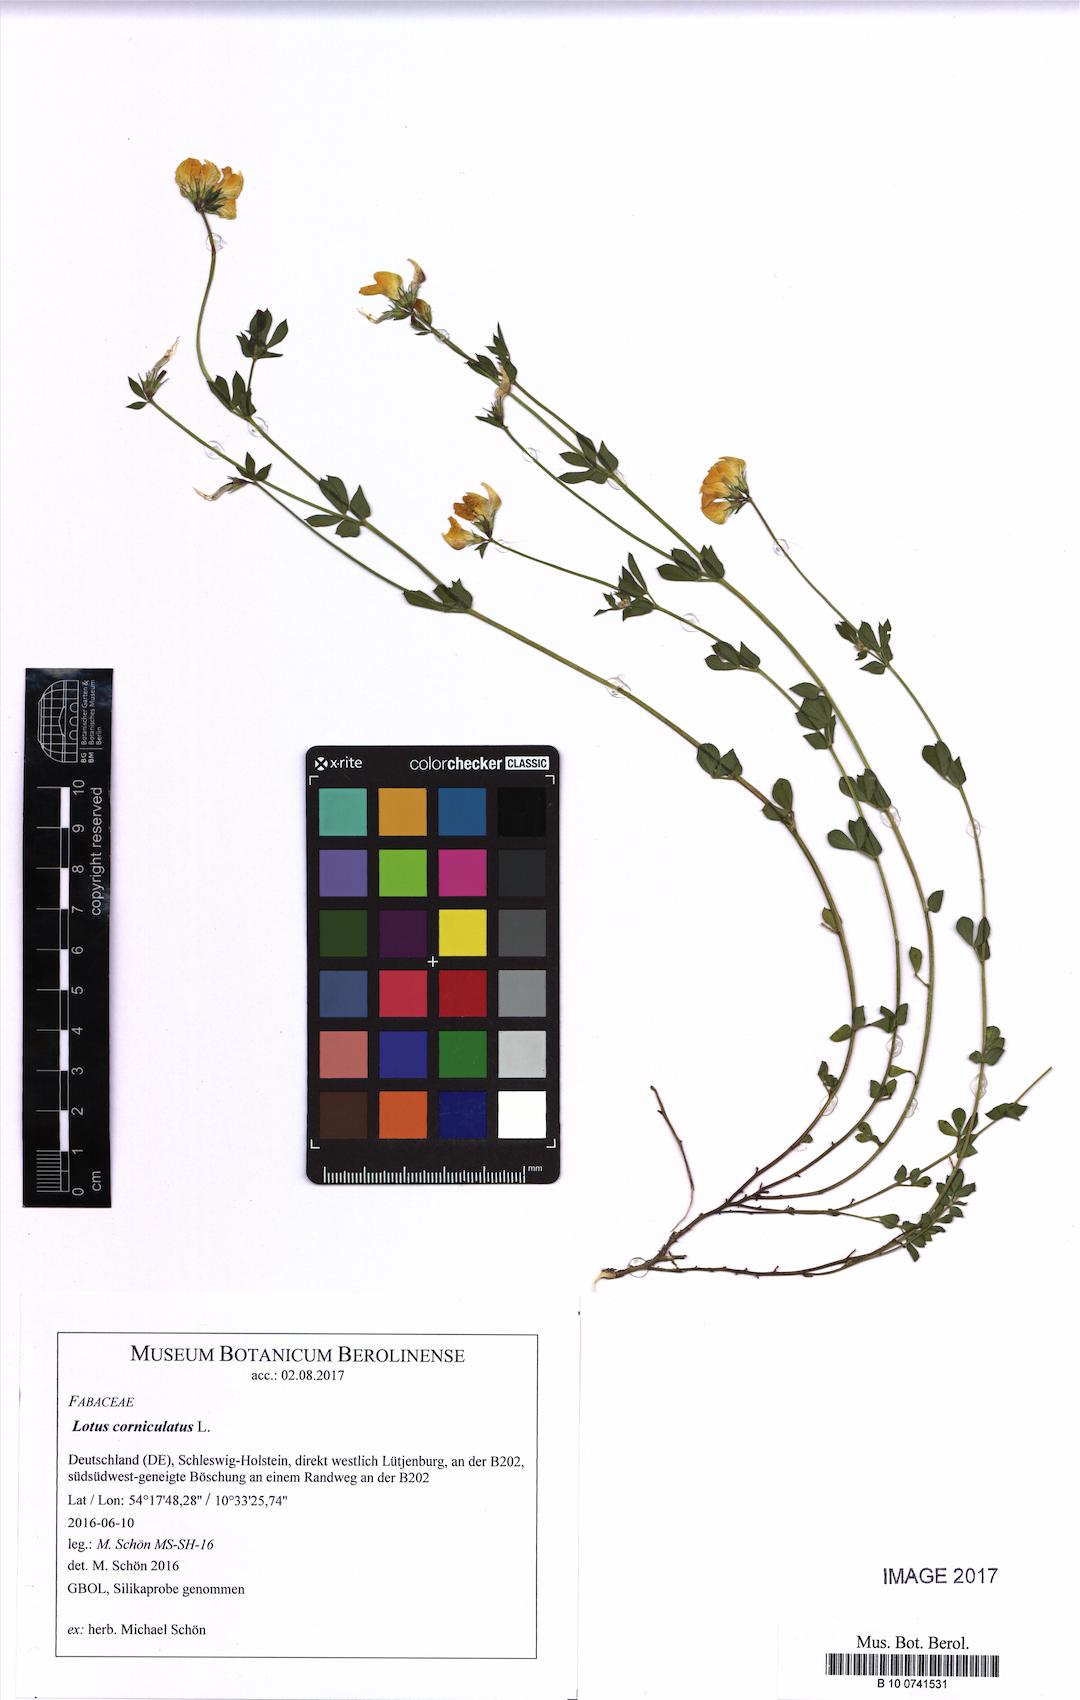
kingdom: Plantae
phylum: Tracheophyta
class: Magnoliopsida
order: Fabales
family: Fabaceae
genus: Lotus
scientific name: Lotus corniculatus
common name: Common bird's-foot-trefoil
